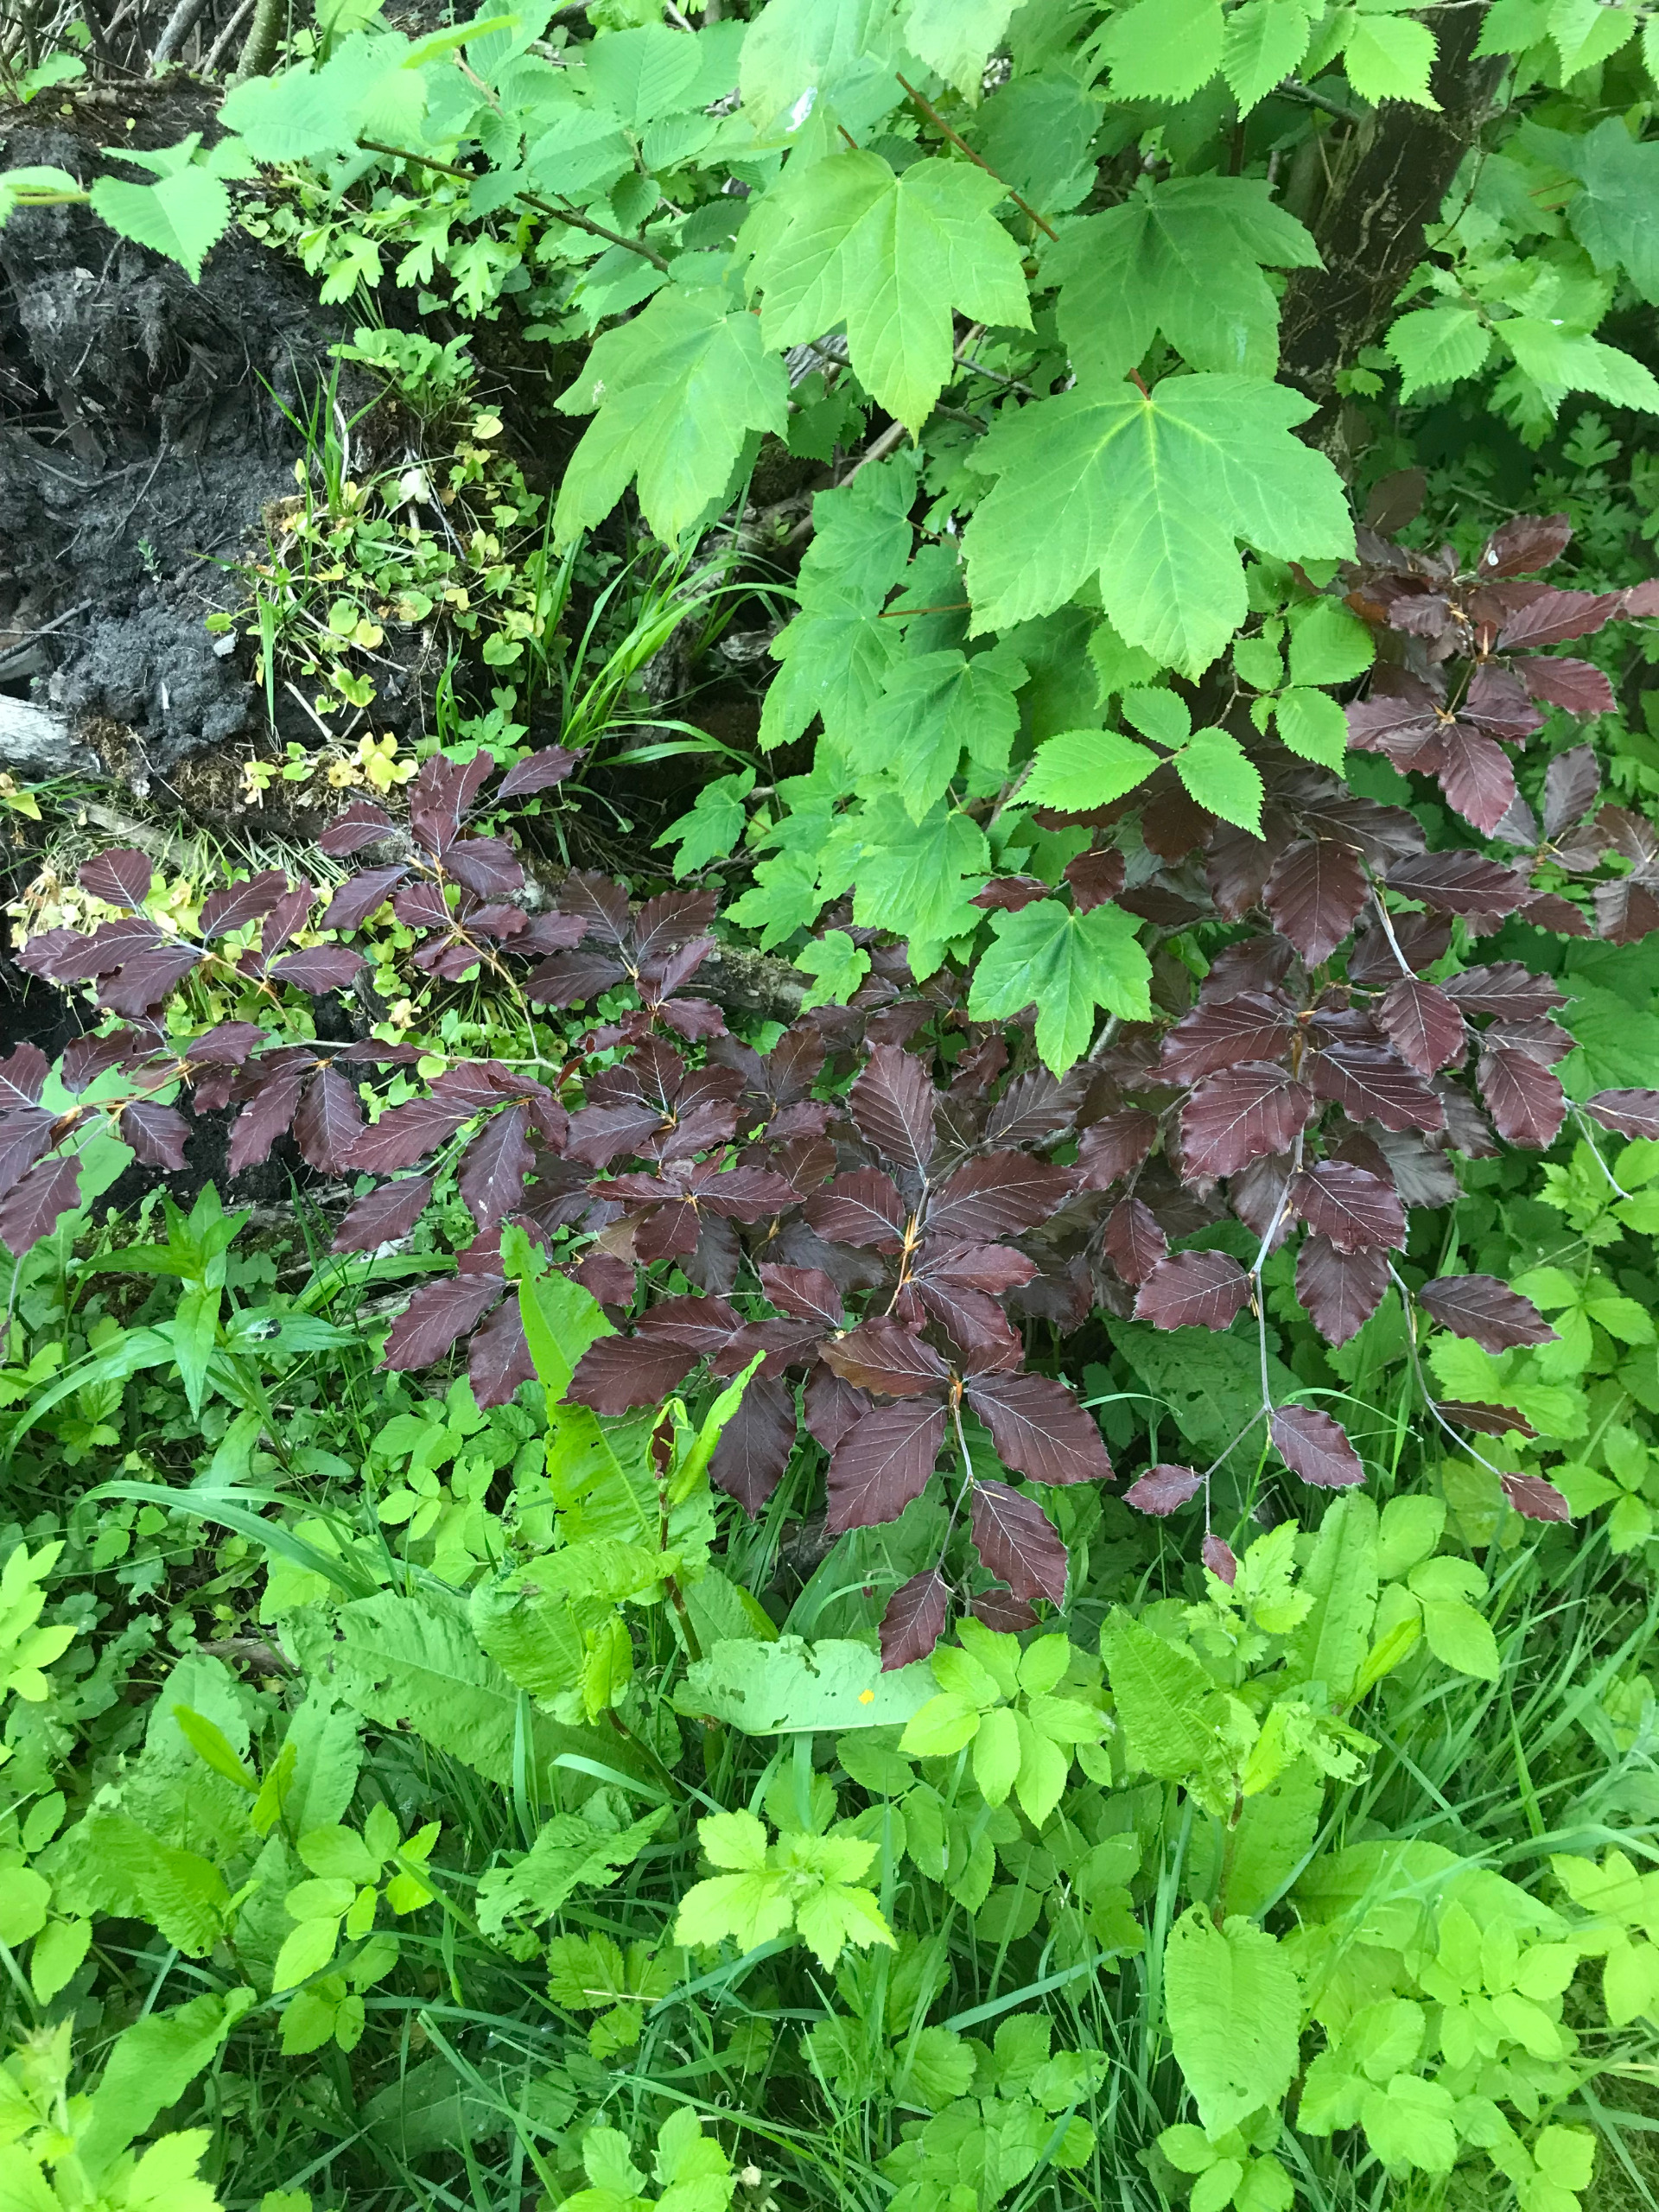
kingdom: Plantae
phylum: Tracheophyta
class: Magnoliopsida
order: Fagales
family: Fagaceae
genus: Fagus
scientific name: Fagus sylvatica
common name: Bøg
